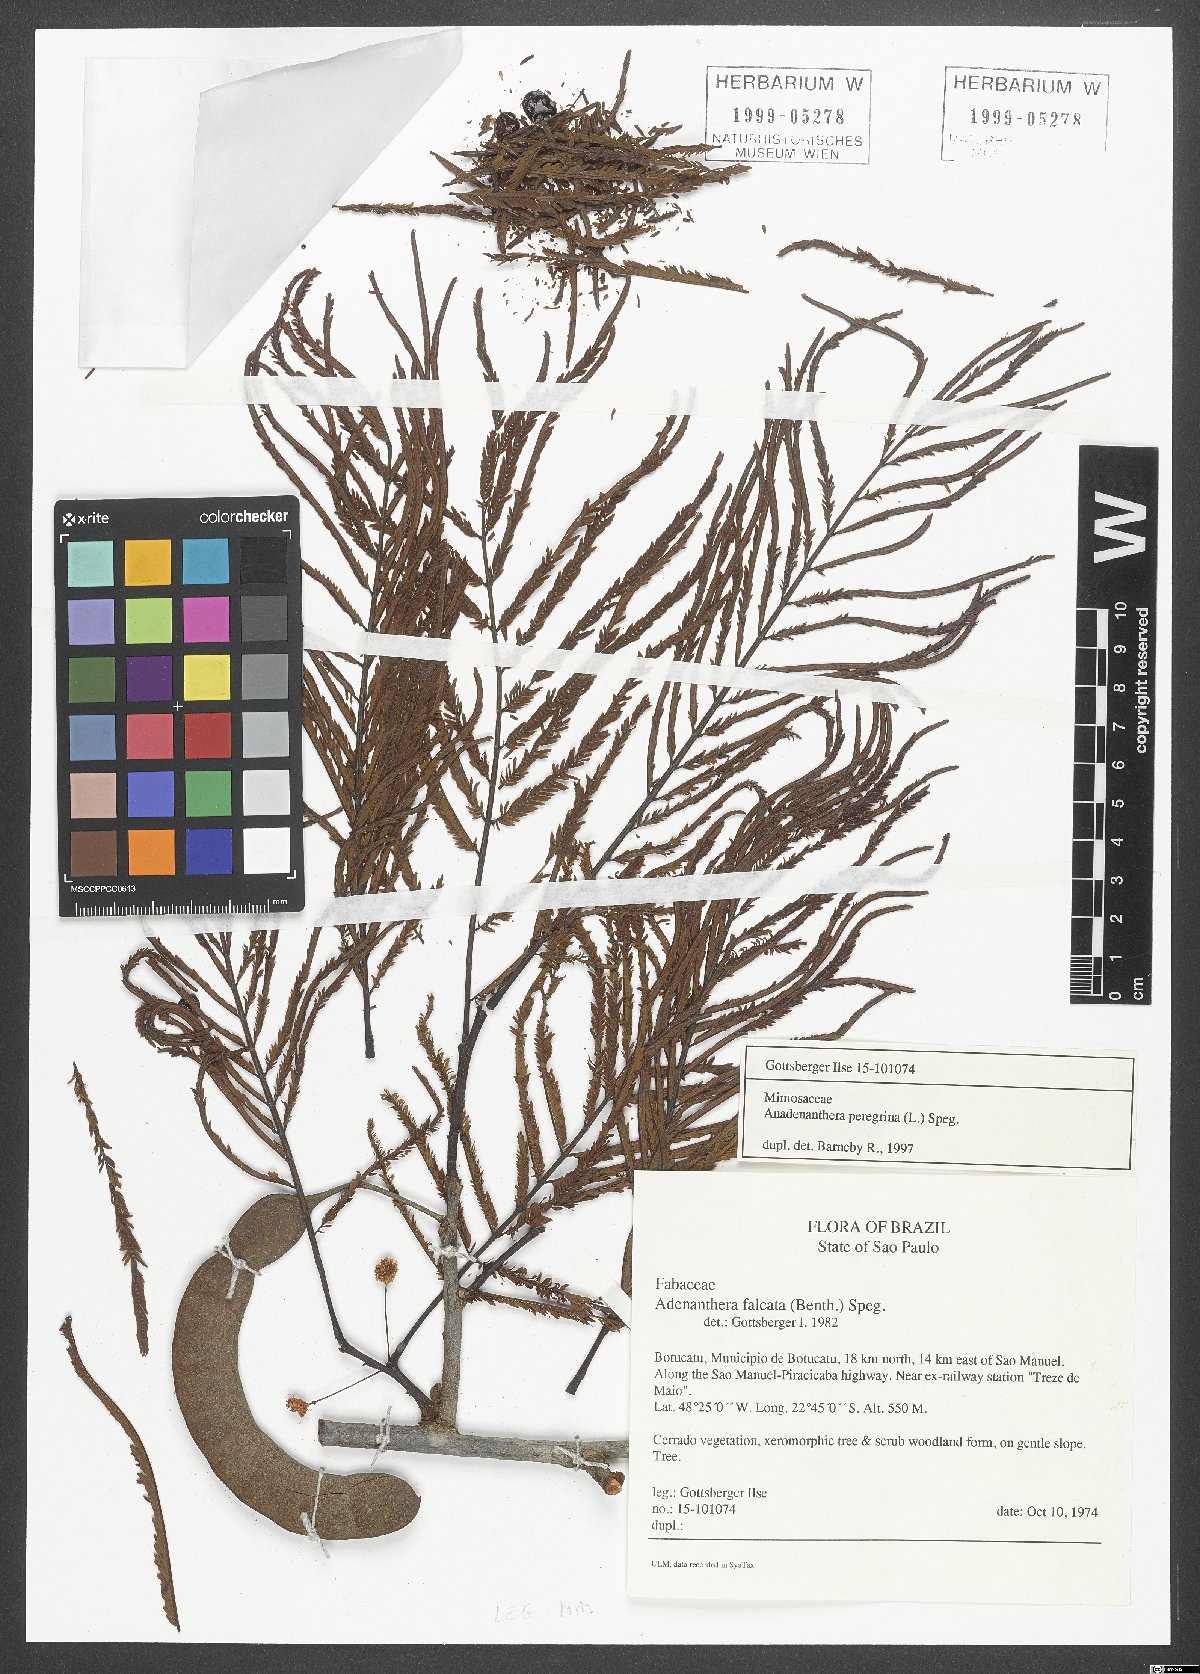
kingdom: Plantae
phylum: Tracheophyta
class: Magnoliopsida
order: Fabales
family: Fabaceae
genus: Falcataria
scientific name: Falcataria falcata
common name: Moluccan albizia
